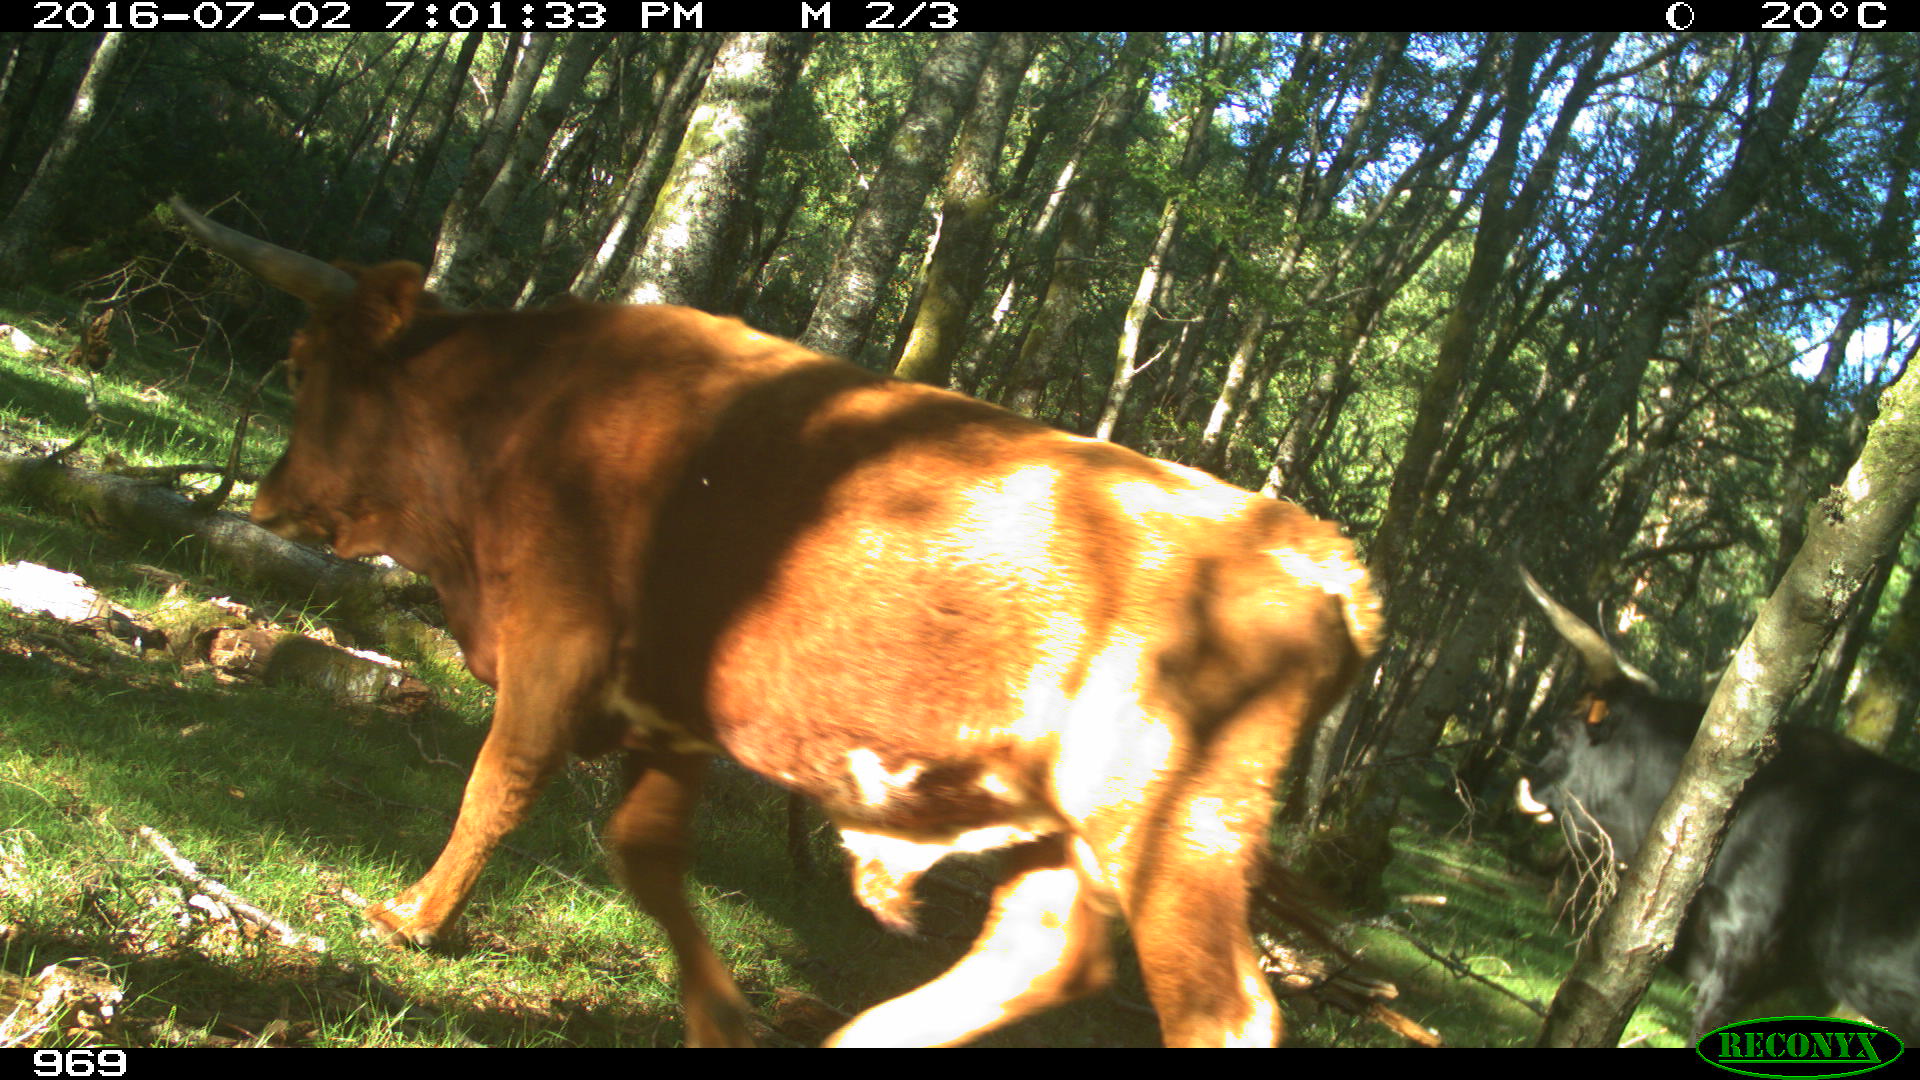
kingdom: Animalia
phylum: Chordata
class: Mammalia
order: Artiodactyla
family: Bovidae
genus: Bos
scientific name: Bos taurus
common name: Domesticated cattle
